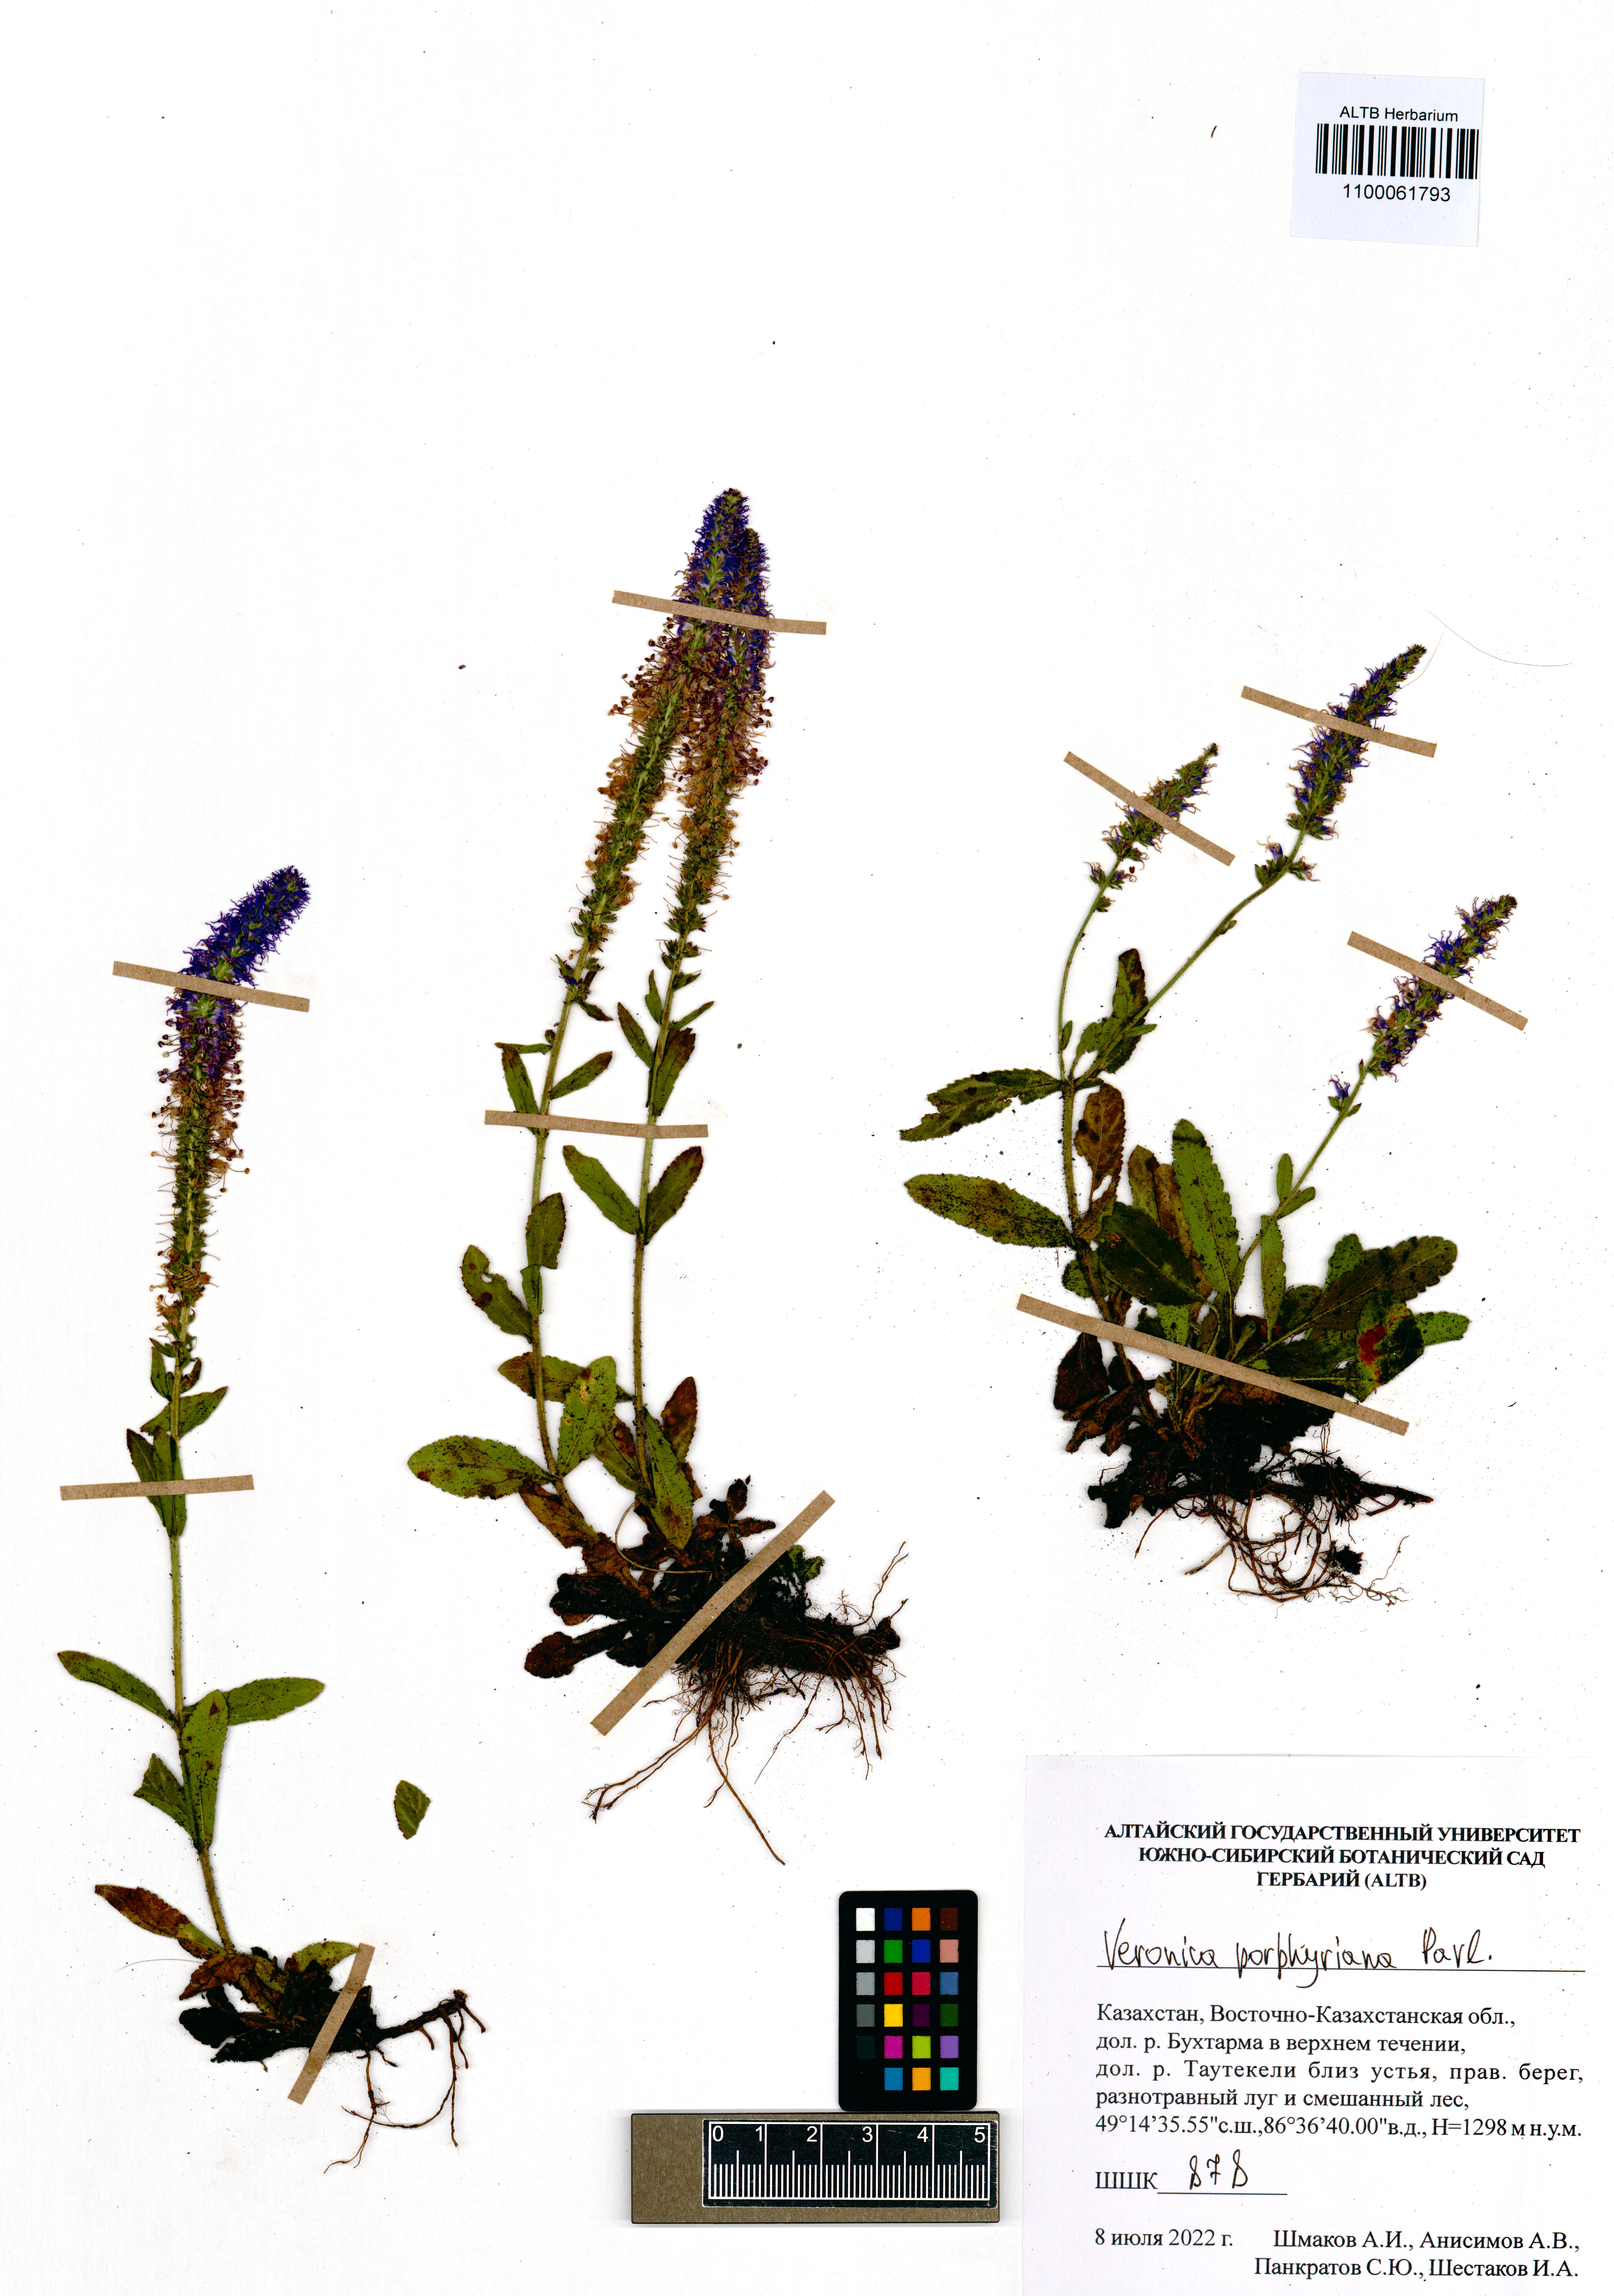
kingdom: Plantae
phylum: Tracheophyta
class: Magnoliopsida
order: Lamiales
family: Plantaginaceae
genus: Veronica
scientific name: Veronica porphyriana
